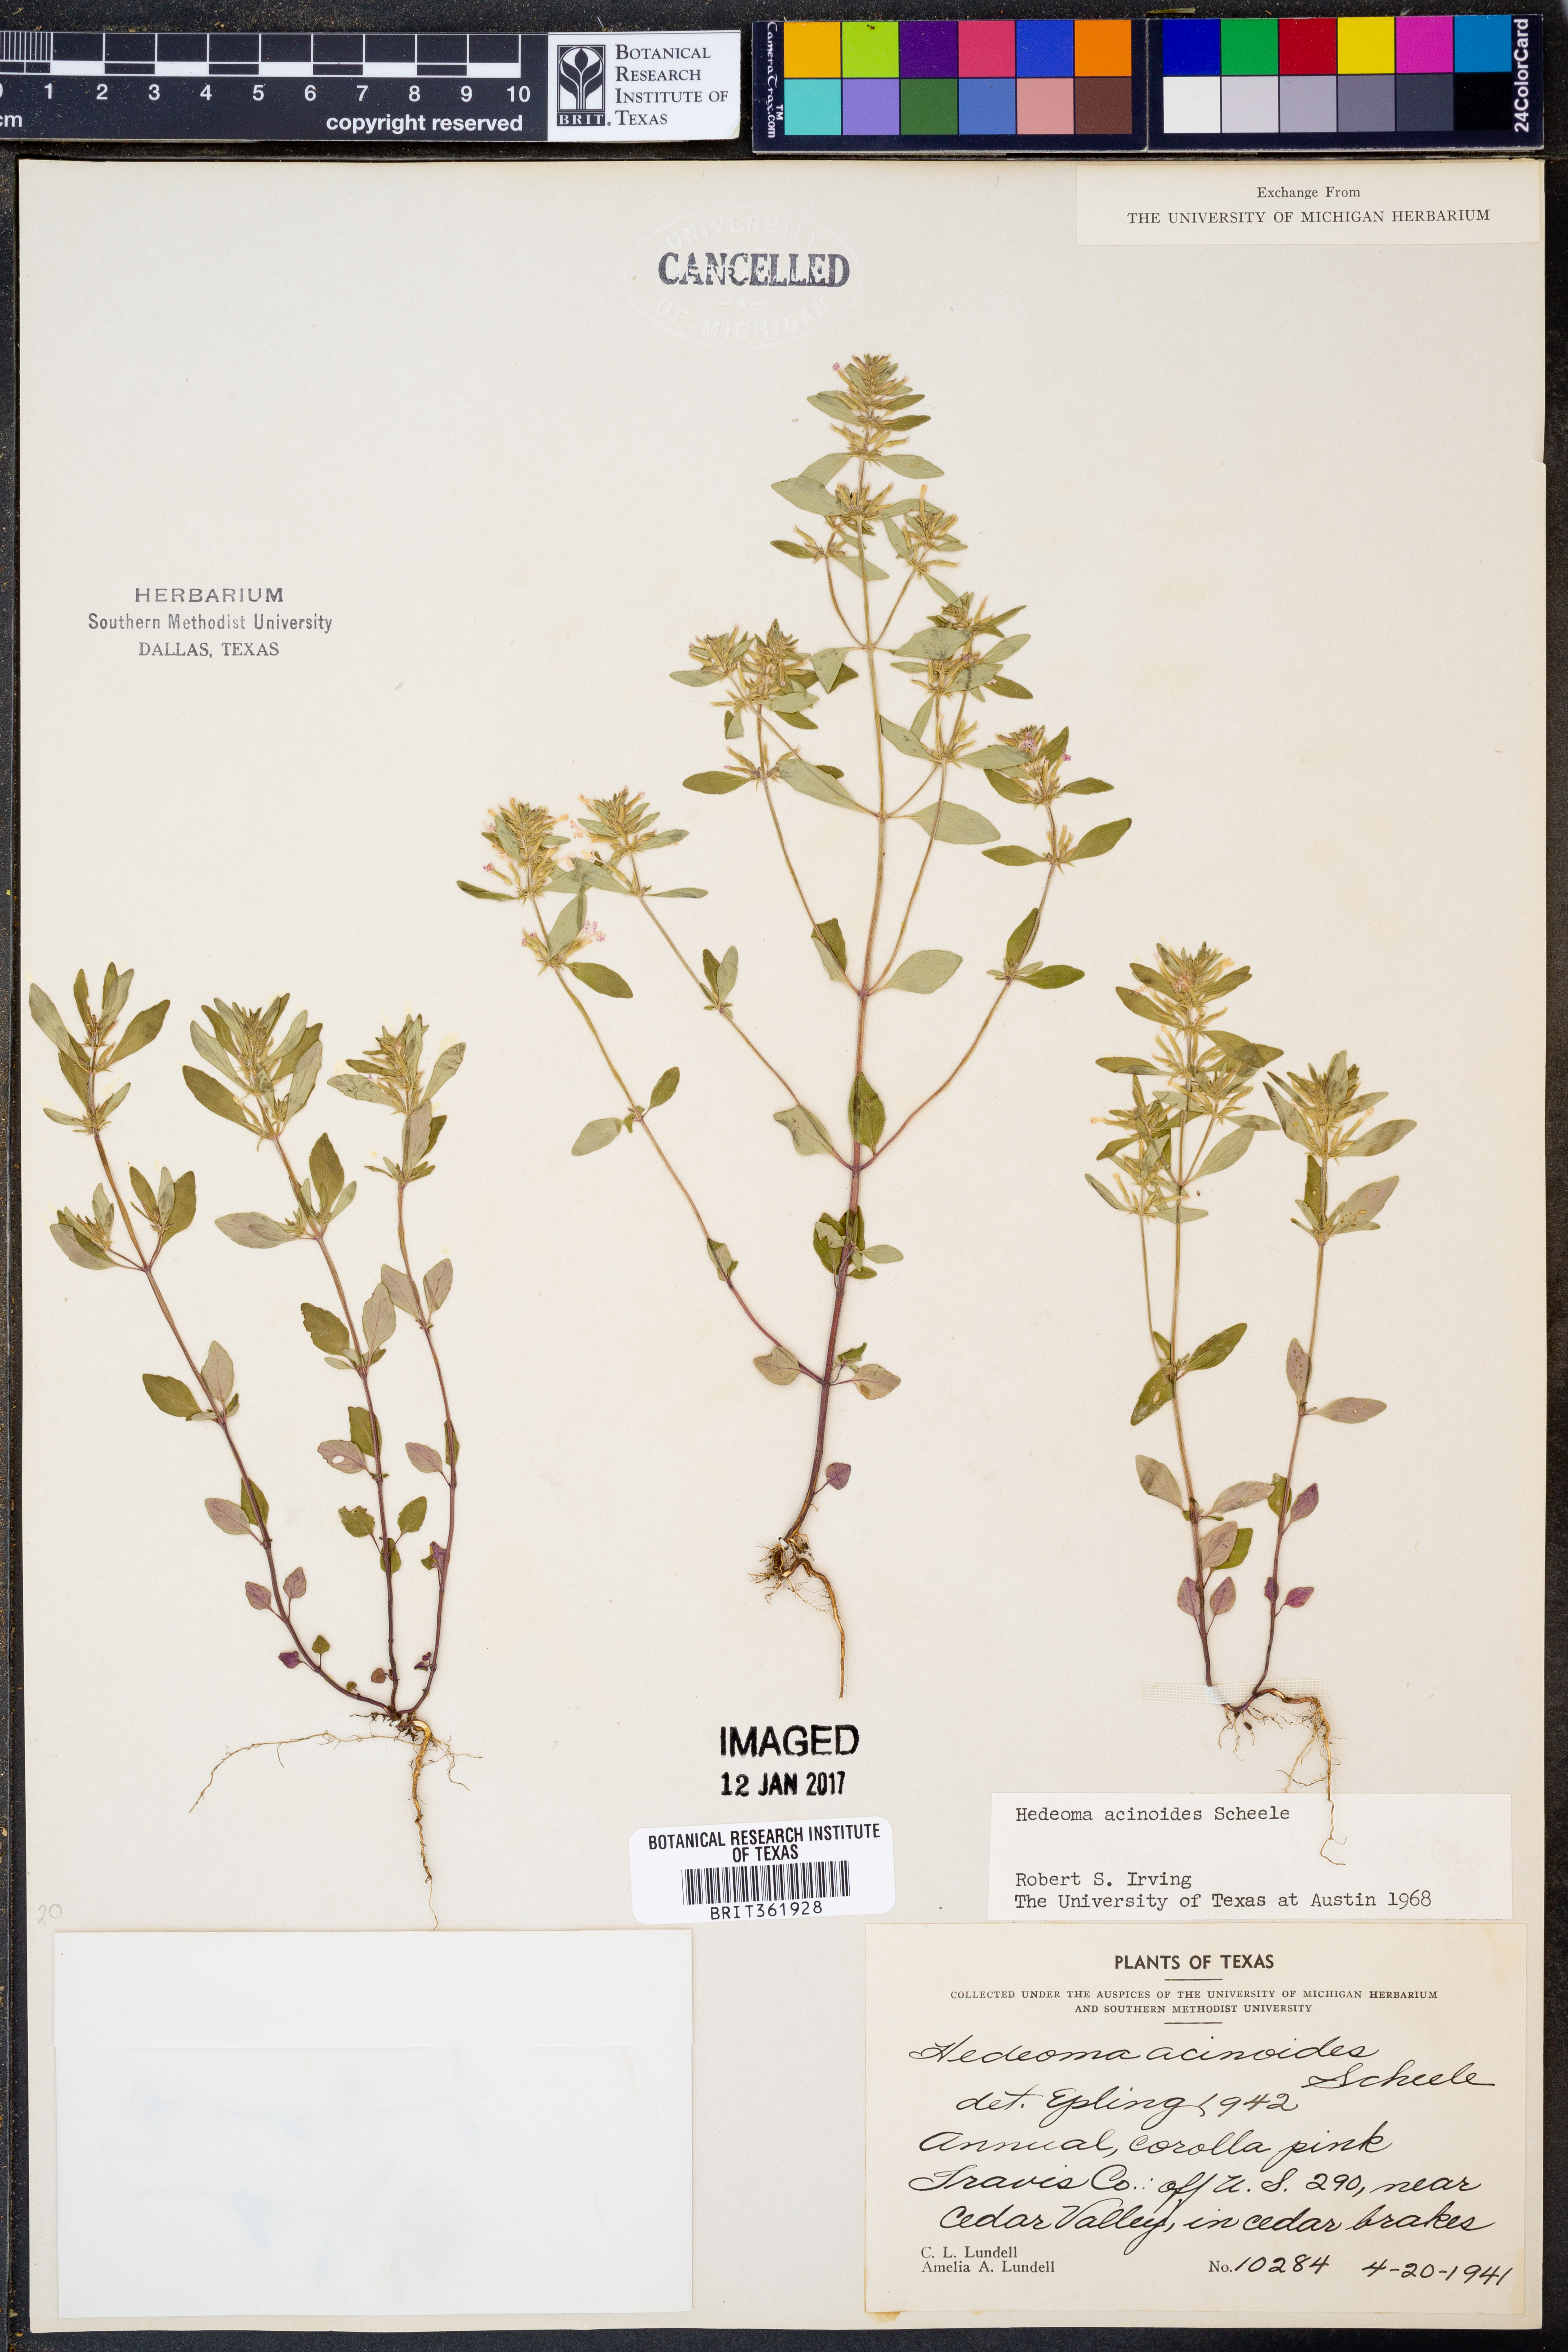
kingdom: Plantae
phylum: Tracheophyta
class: Magnoliopsida
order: Lamiales
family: Lamiaceae
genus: Hedeoma
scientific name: Hedeoma acinoides
